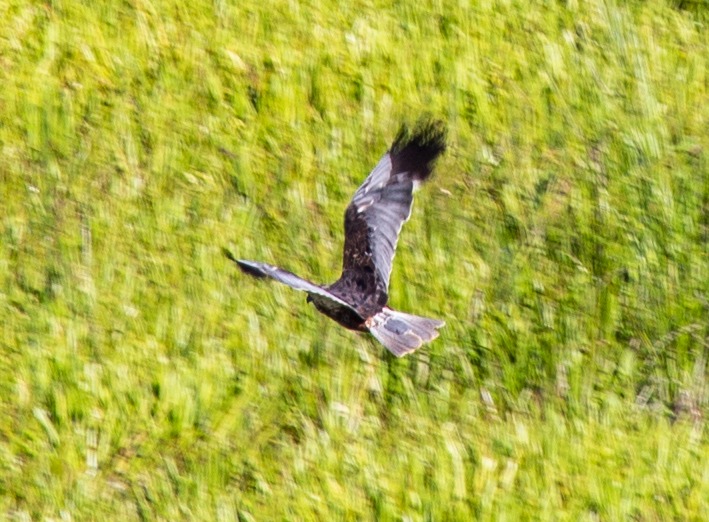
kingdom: Animalia
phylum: Chordata
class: Aves
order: Accipitriformes
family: Accipitridae
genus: Circus
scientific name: Circus aeruginosus
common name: Rørhøg
